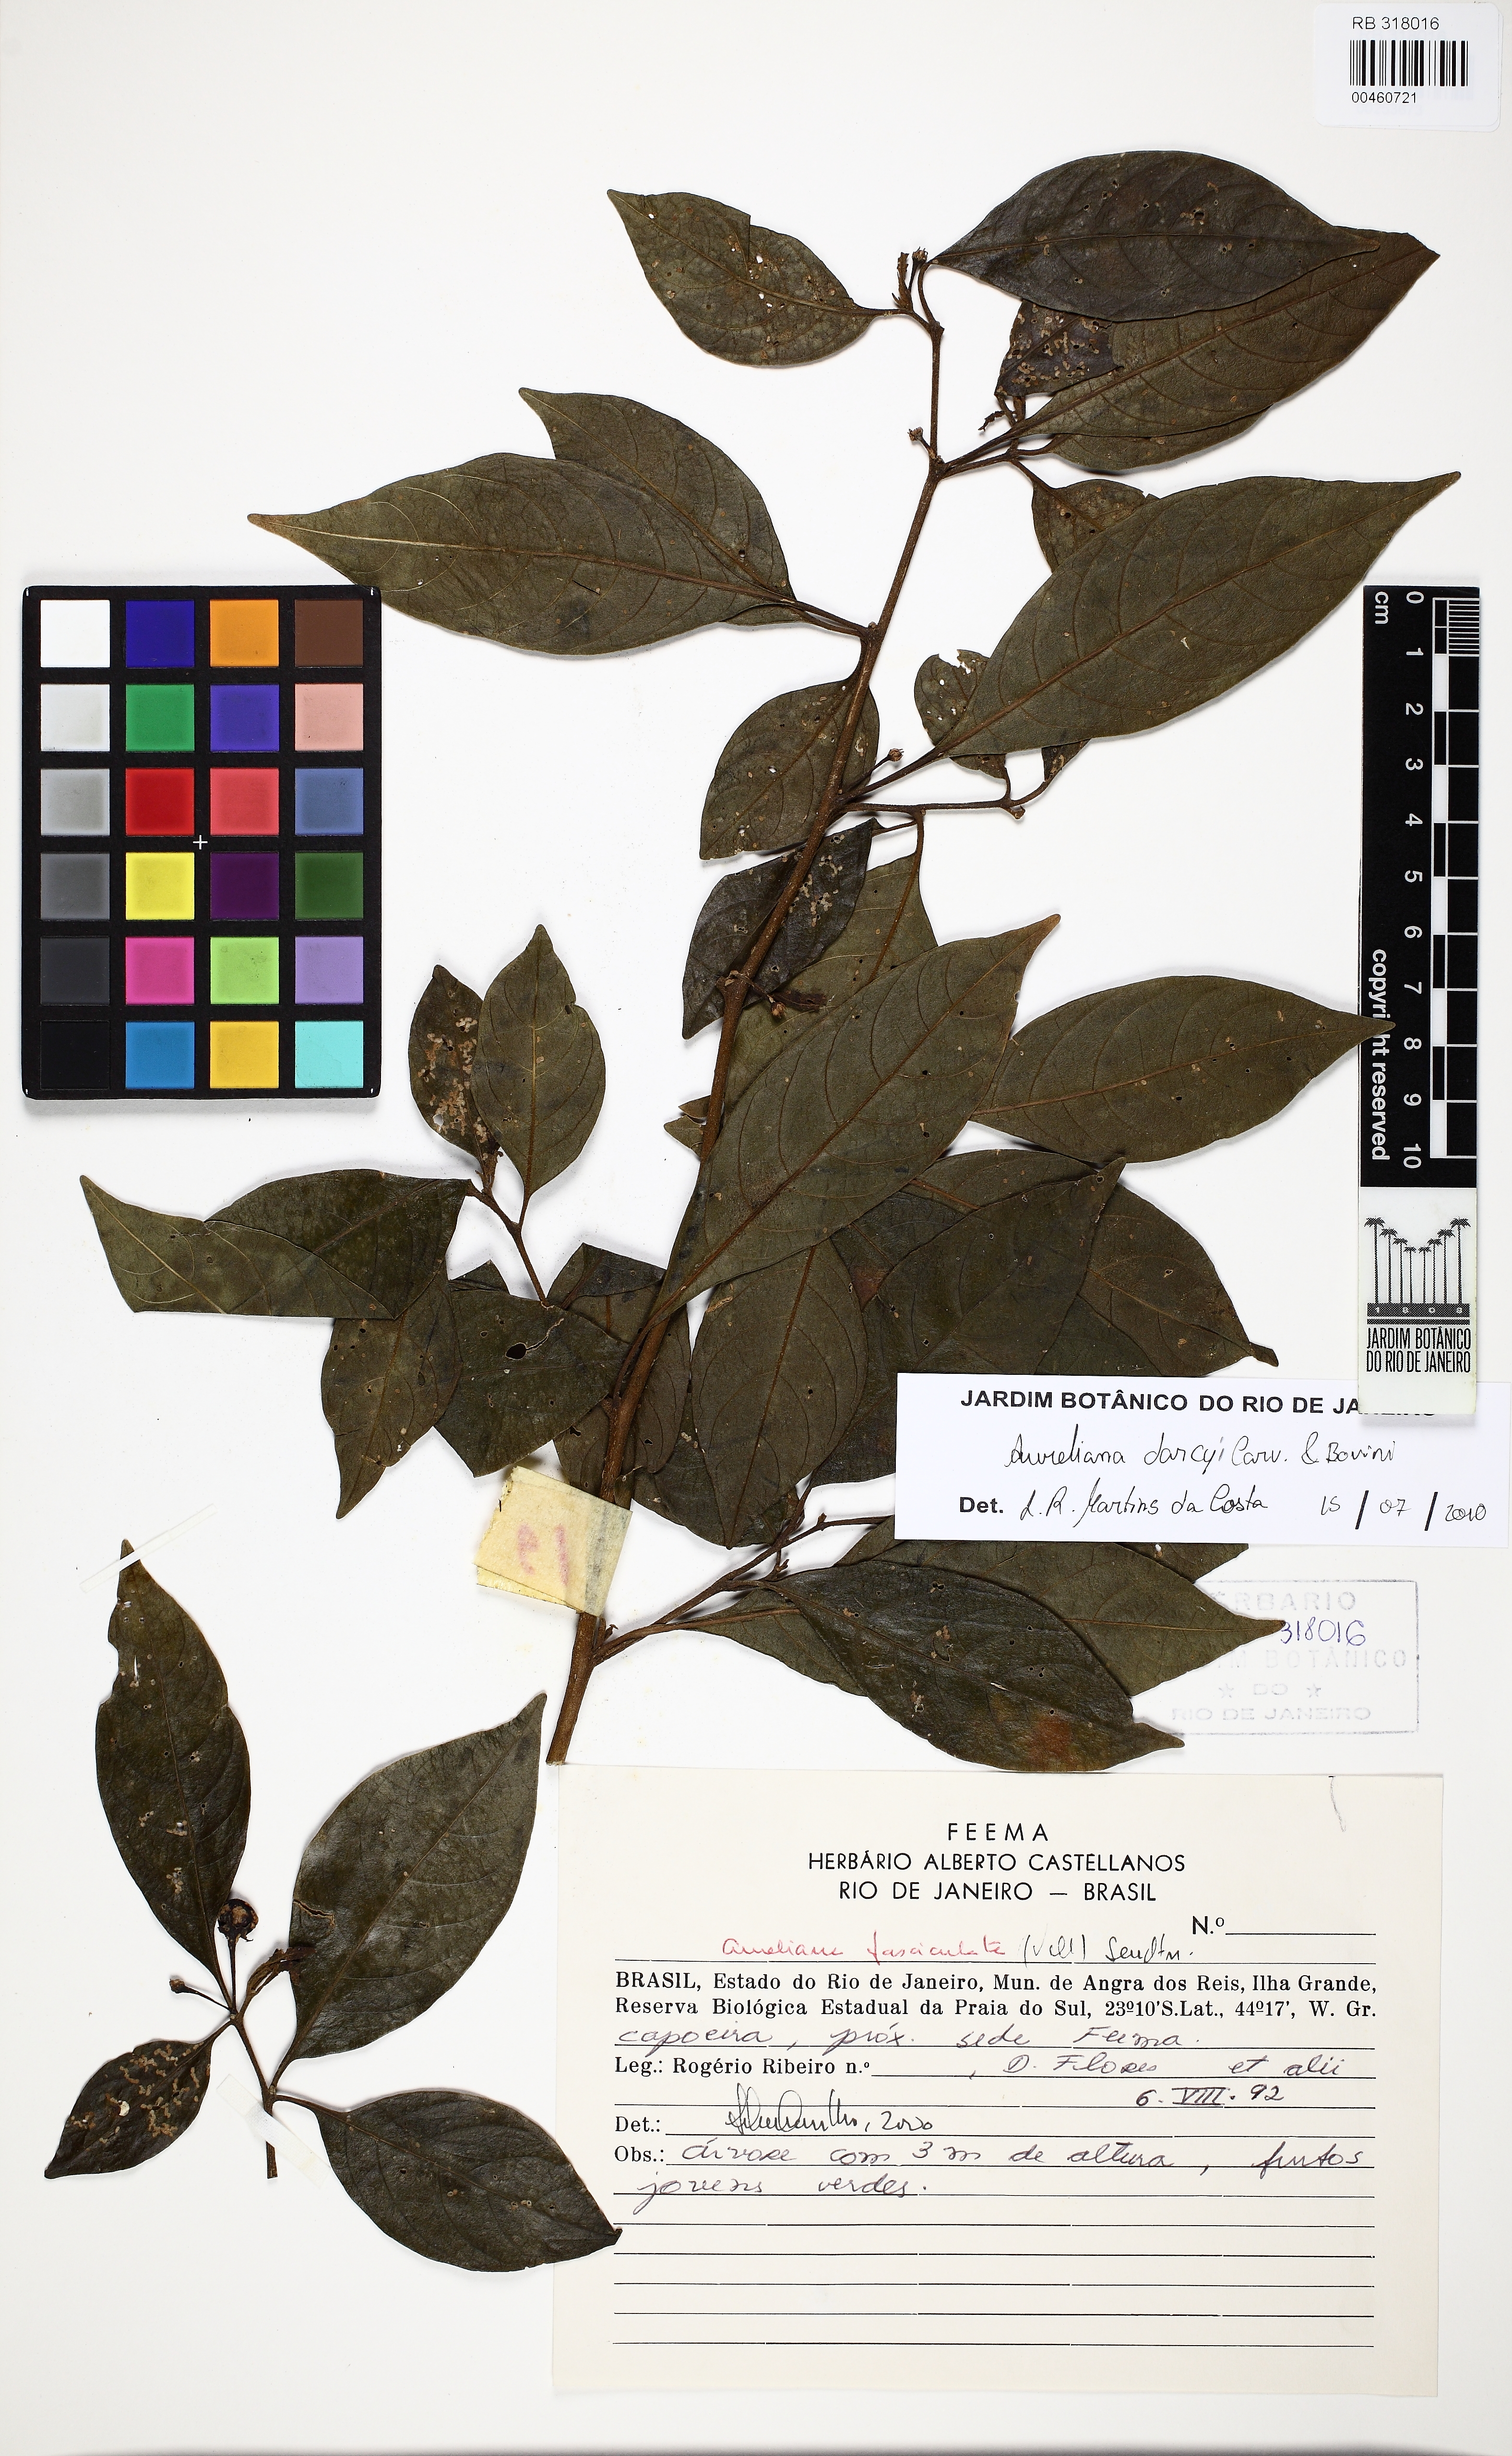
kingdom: Plantae
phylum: Tracheophyta
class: Magnoliopsida
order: Solanales
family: Solanaceae
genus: Athenaea
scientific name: Athenaea fasciculata
